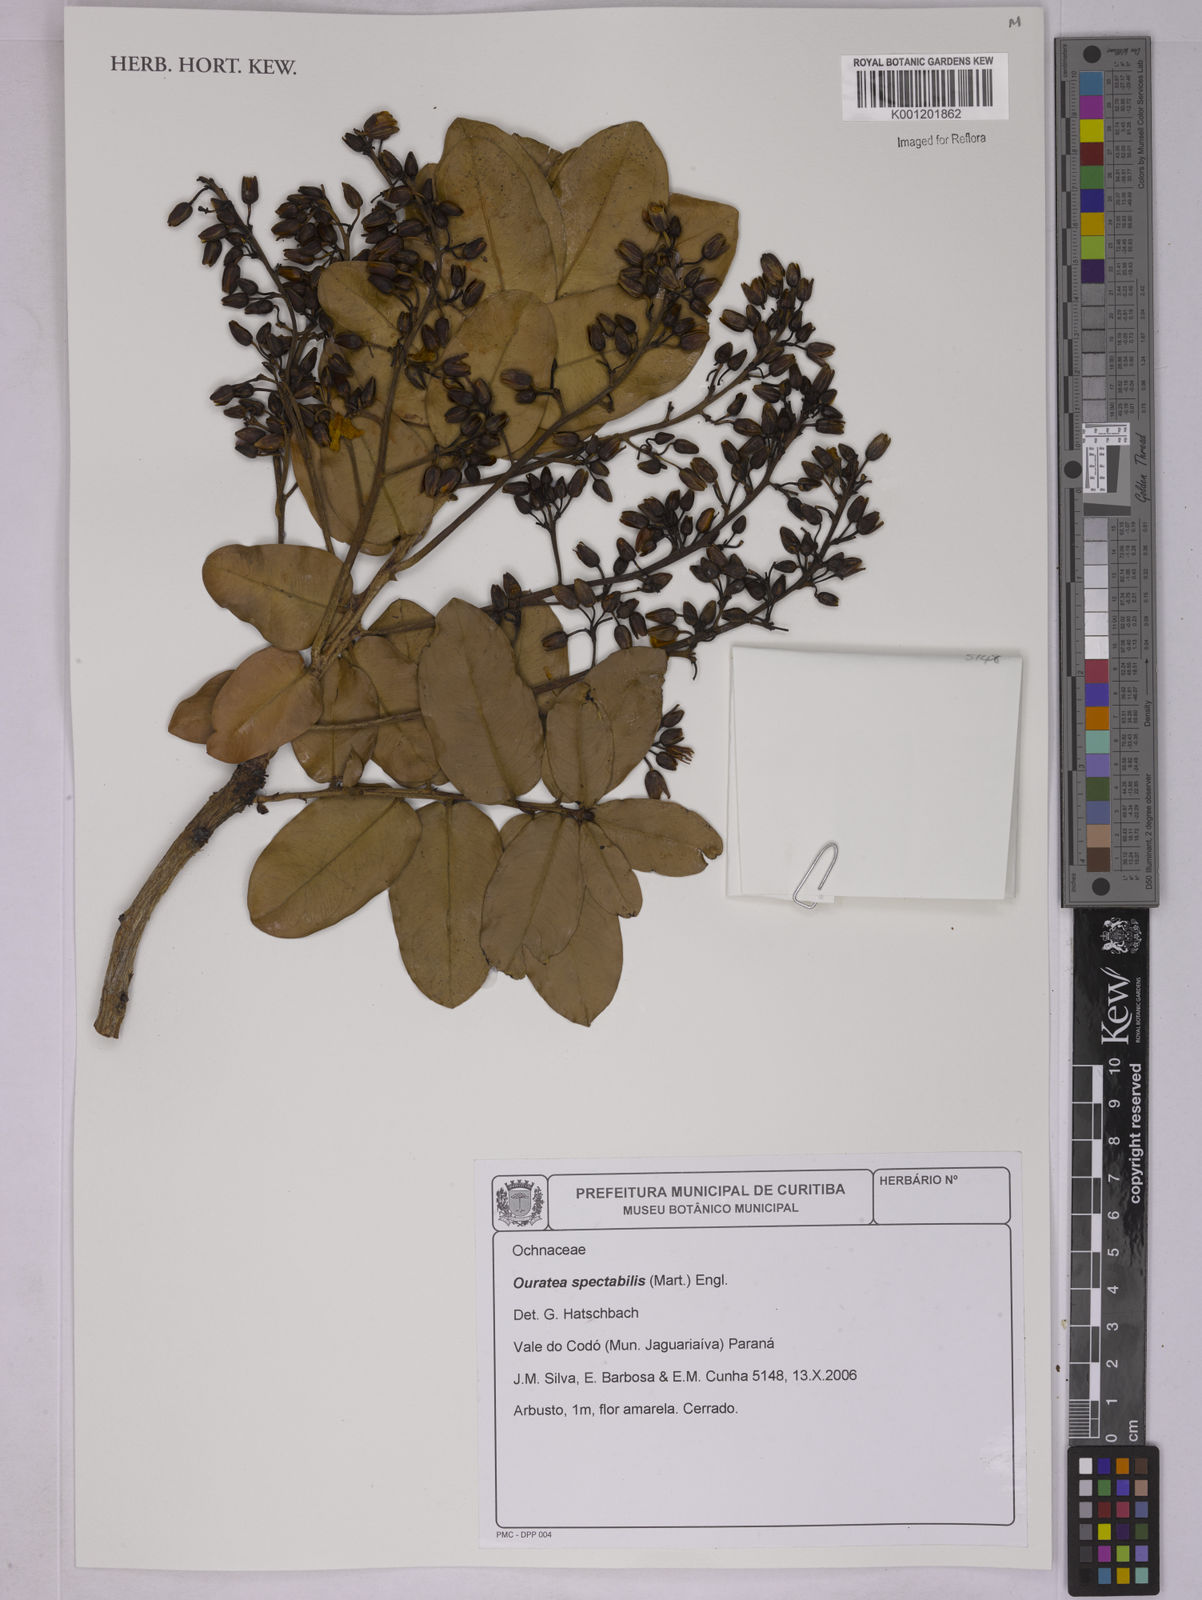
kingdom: Plantae
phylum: Tracheophyta
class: Magnoliopsida
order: Malpighiales
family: Ochnaceae
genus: Ouratea
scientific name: Ouratea spectabilis
